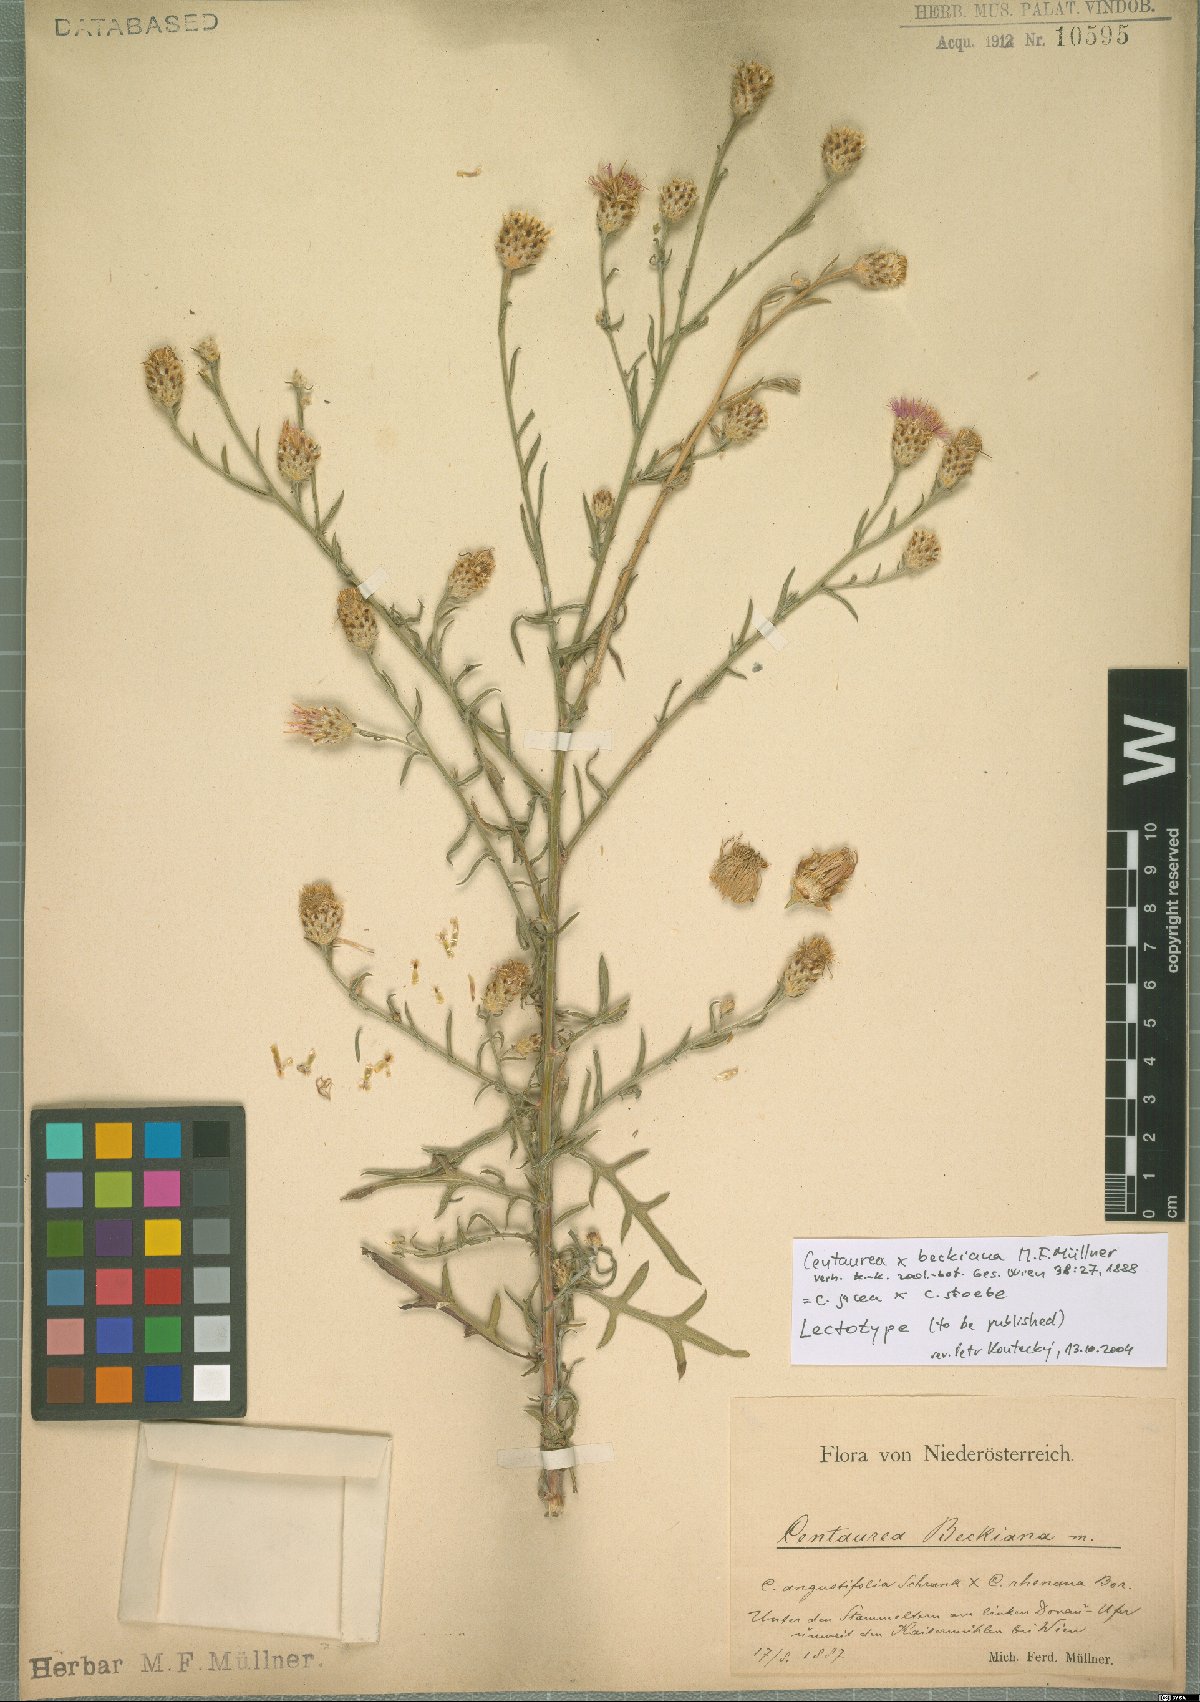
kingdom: Plantae
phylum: Tracheophyta
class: Magnoliopsida
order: Asterales
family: Asteraceae
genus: Centaurea
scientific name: Centaurea beckiana
